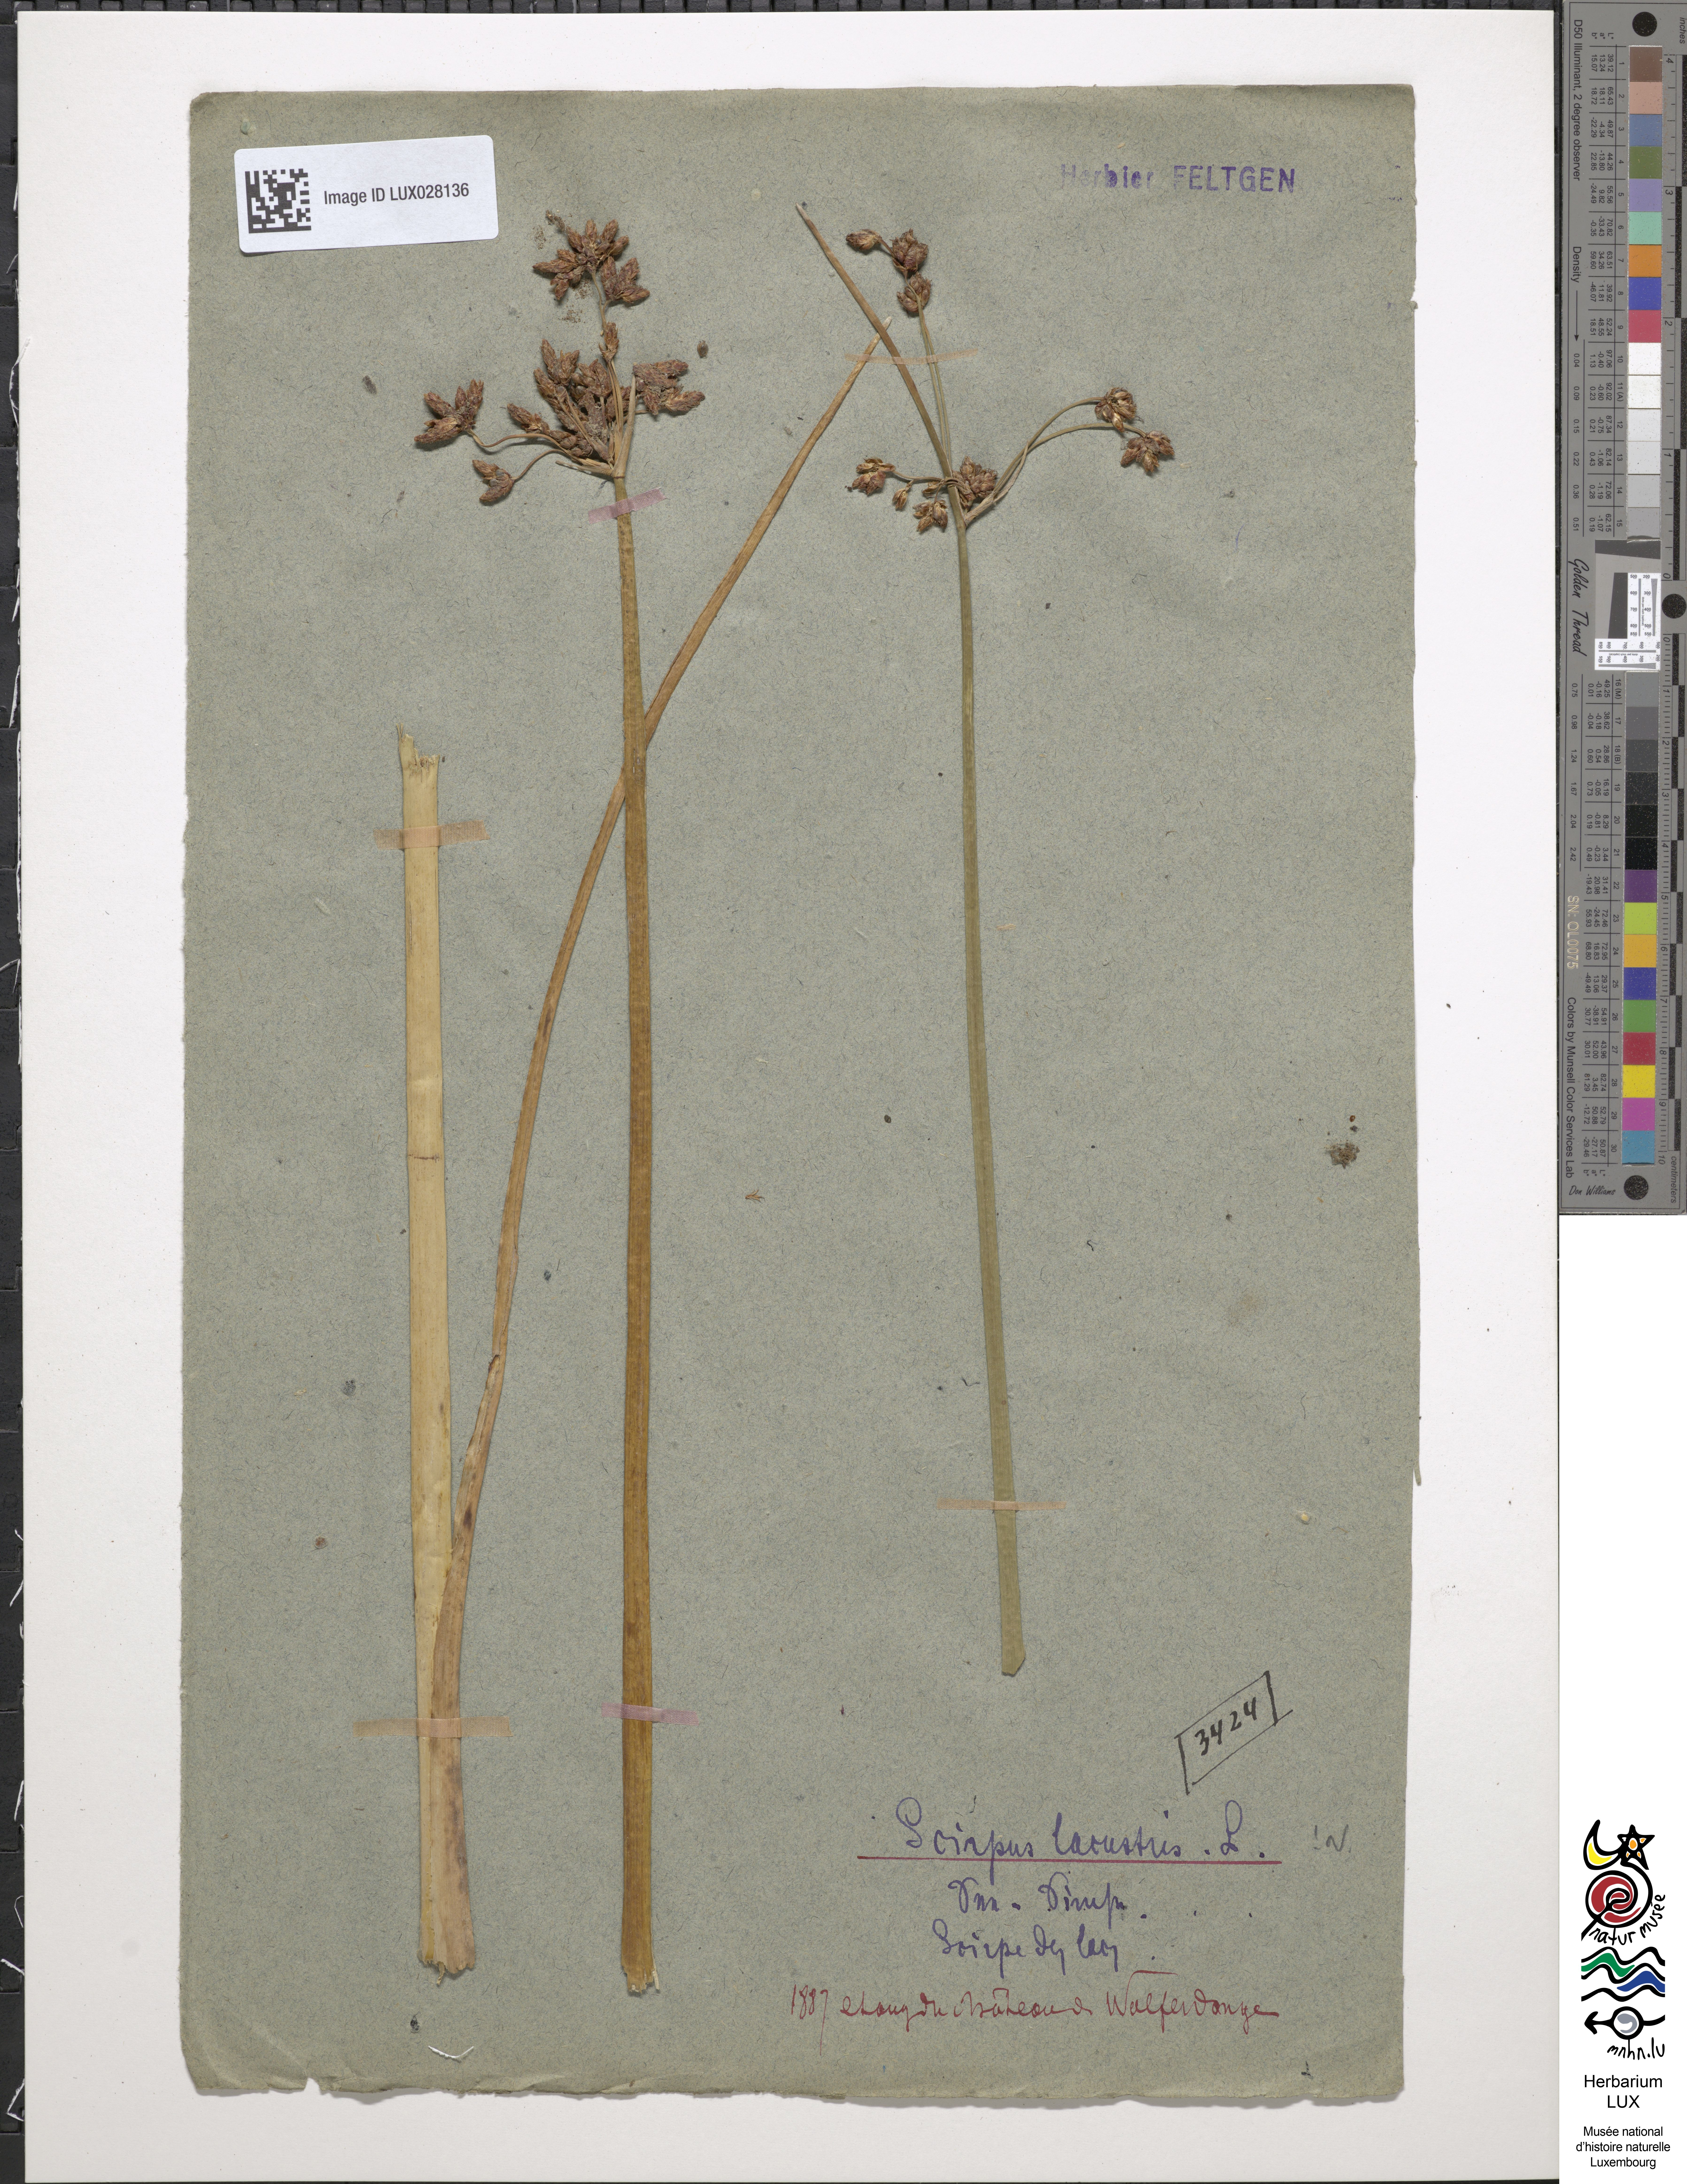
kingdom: Plantae
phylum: Tracheophyta
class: Liliopsida
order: Poales
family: Cyperaceae
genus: Schoenoplectus
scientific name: Schoenoplectus lacustris
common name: Common club-rush
